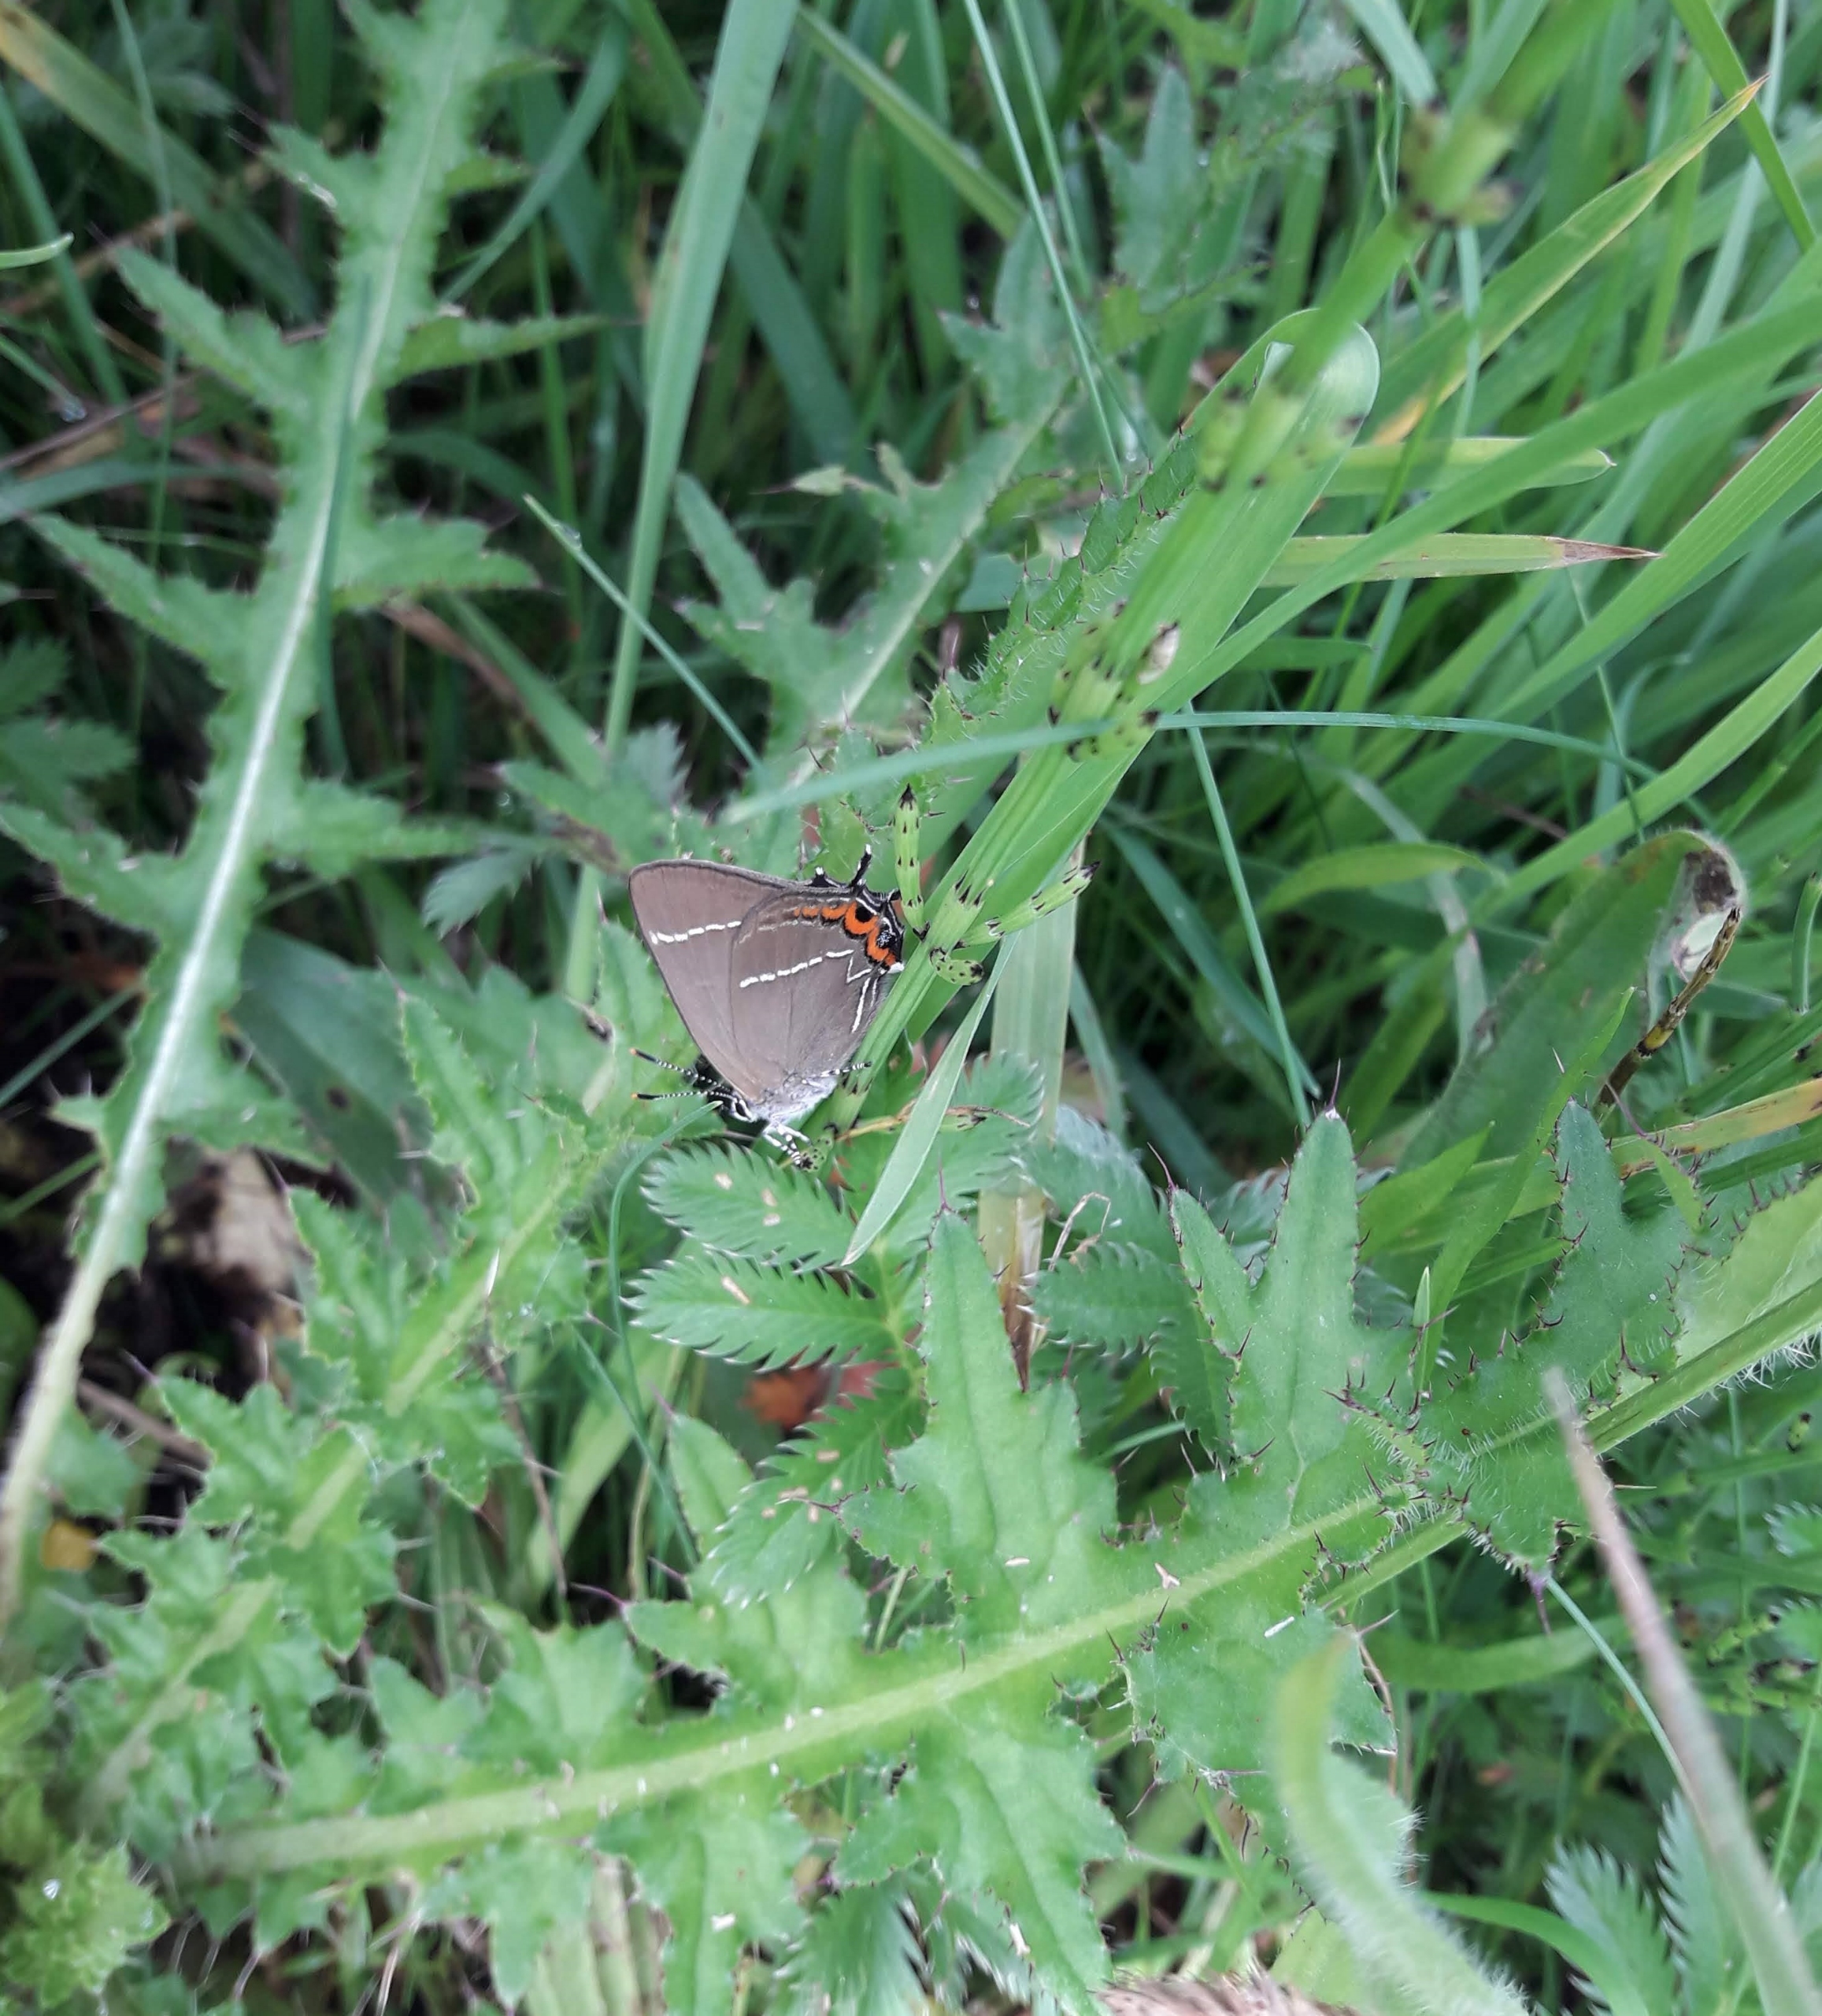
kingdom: Animalia
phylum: Arthropoda
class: Insecta
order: Lepidoptera
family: Lycaenidae
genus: Satyrium
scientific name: Satyrium w-album
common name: Det hvide W
